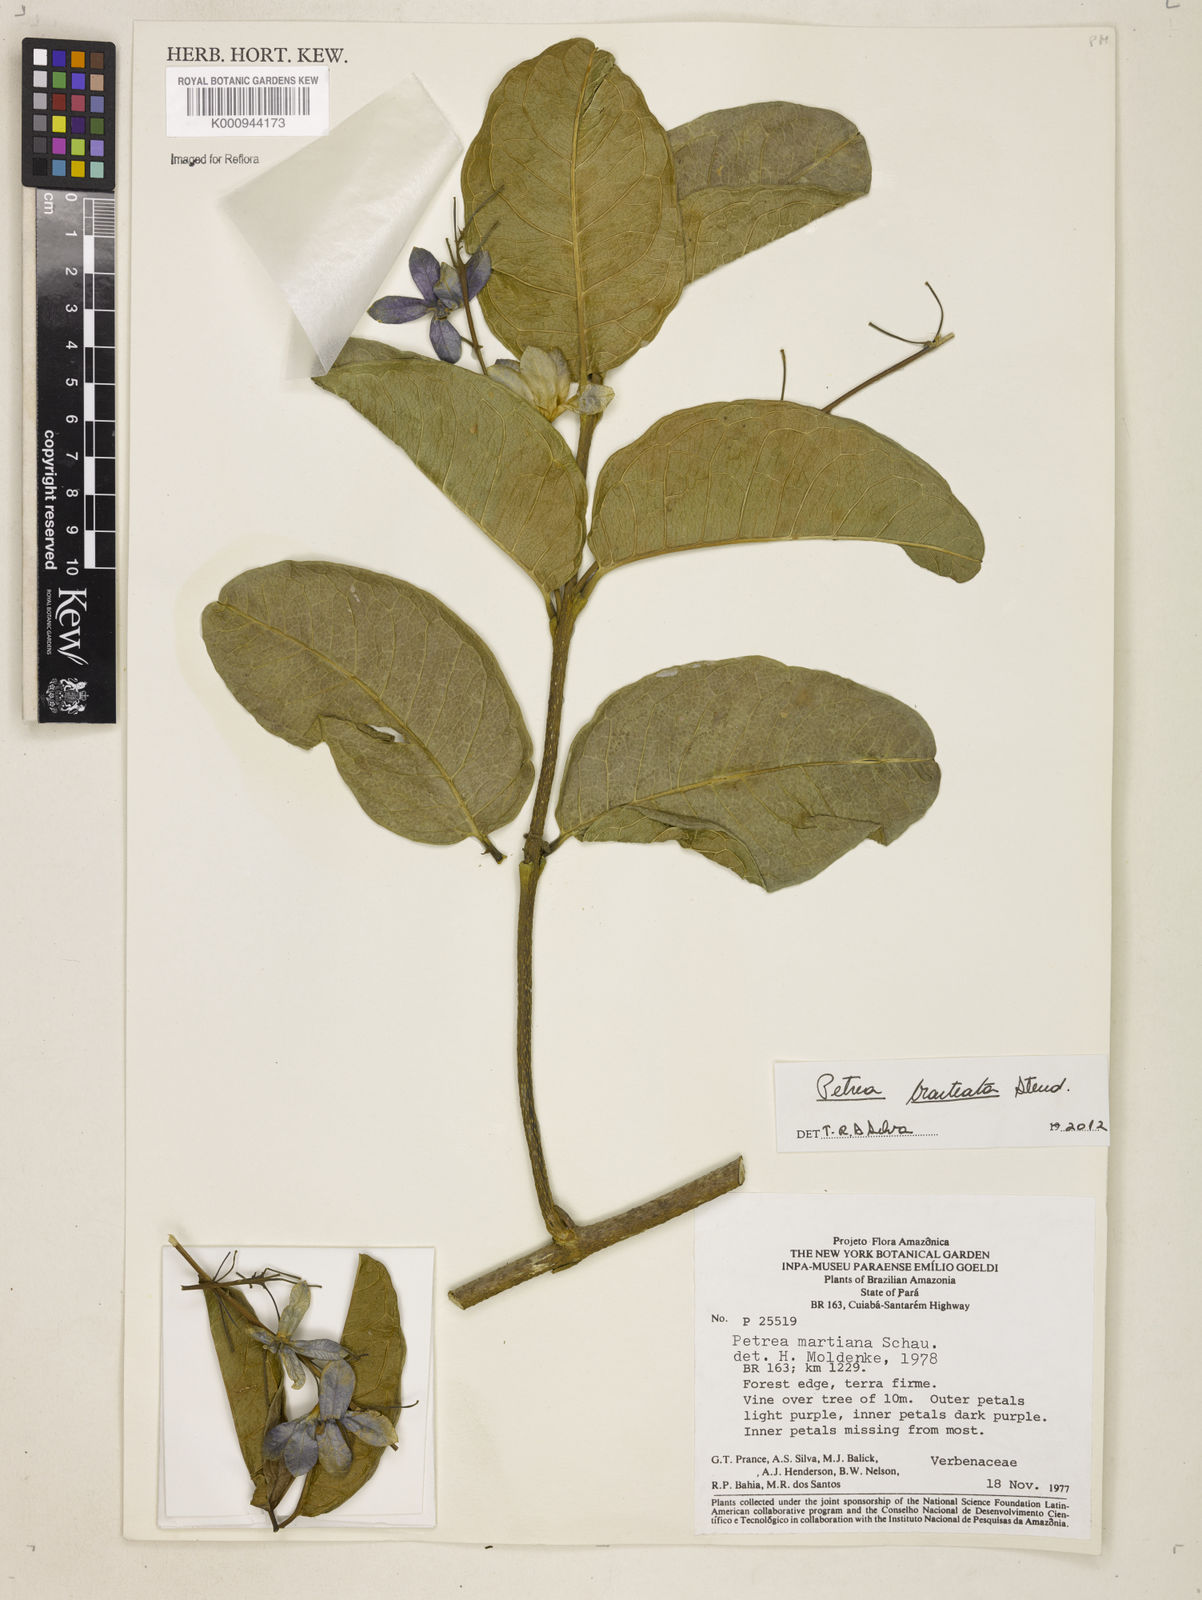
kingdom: Plantae
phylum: Tracheophyta
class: Magnoliopsida
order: Lamiales
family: Verbenaceae
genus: Petrea
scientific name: Petrea bracteata
